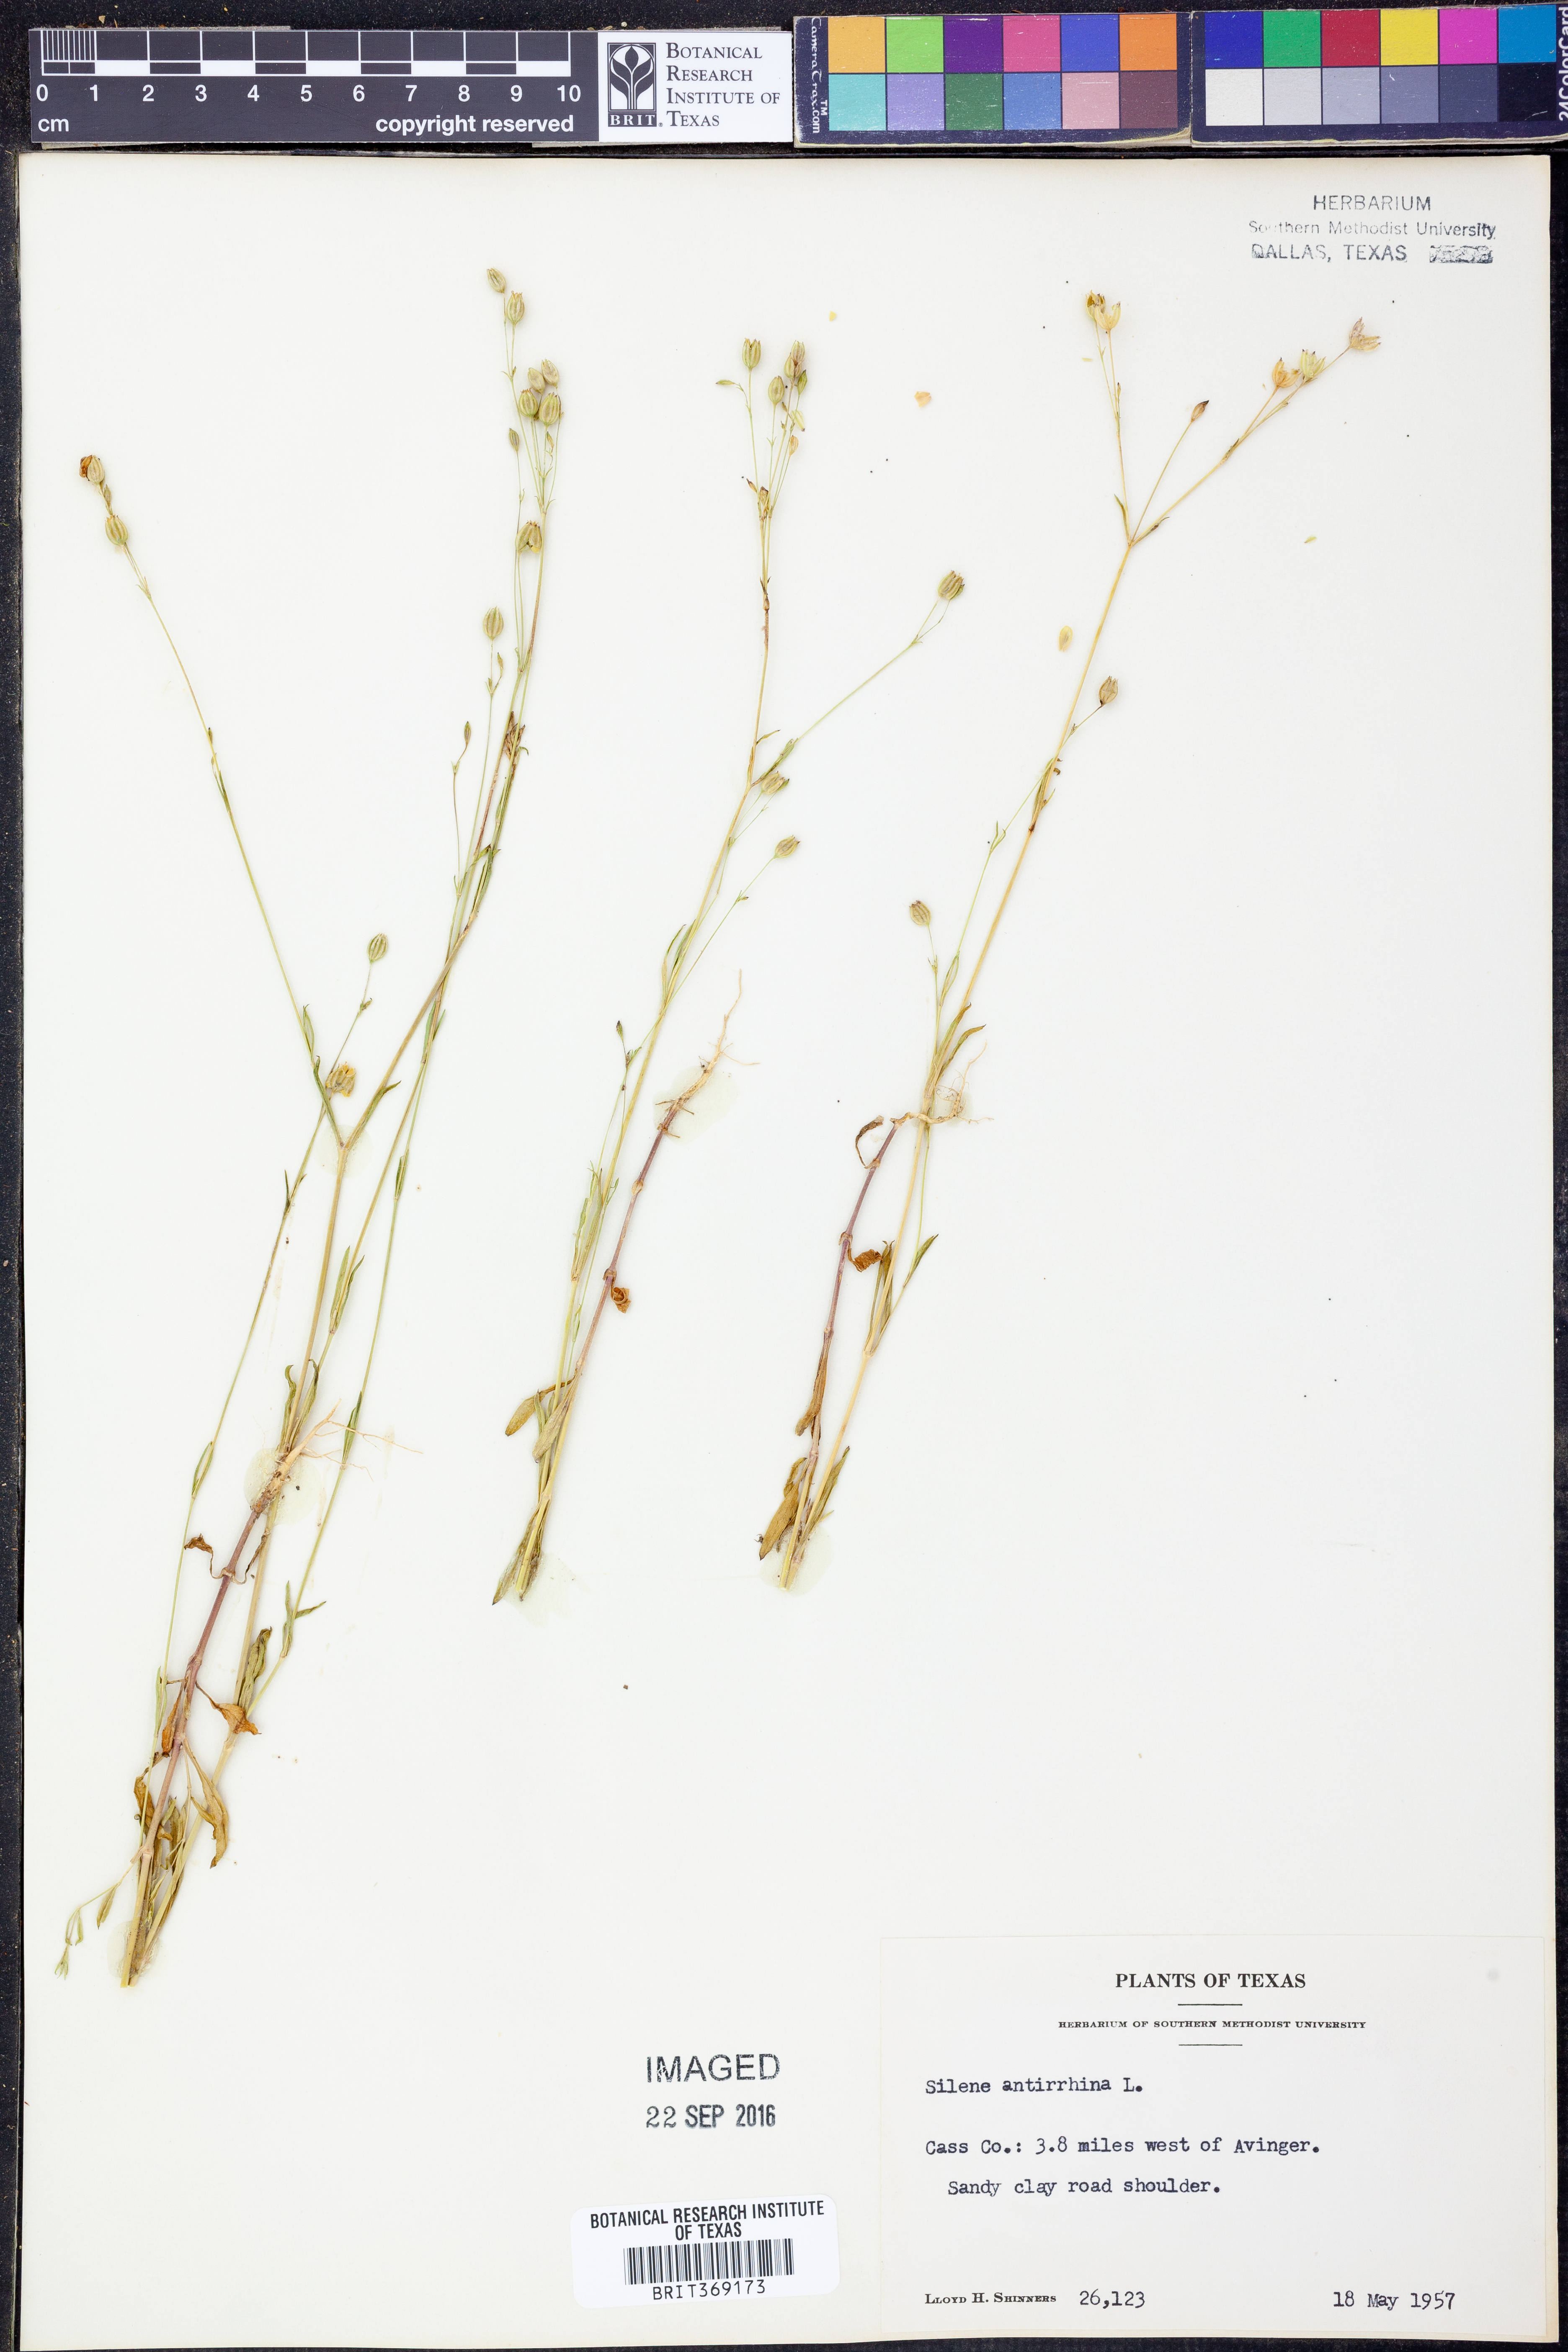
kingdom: Plantae
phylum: Tracheophyta
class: Magnoliopsida
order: Caryophyllales
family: Caryophyllaceae
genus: Silene
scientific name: Silene antirrhina
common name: Sleepy catchfly
